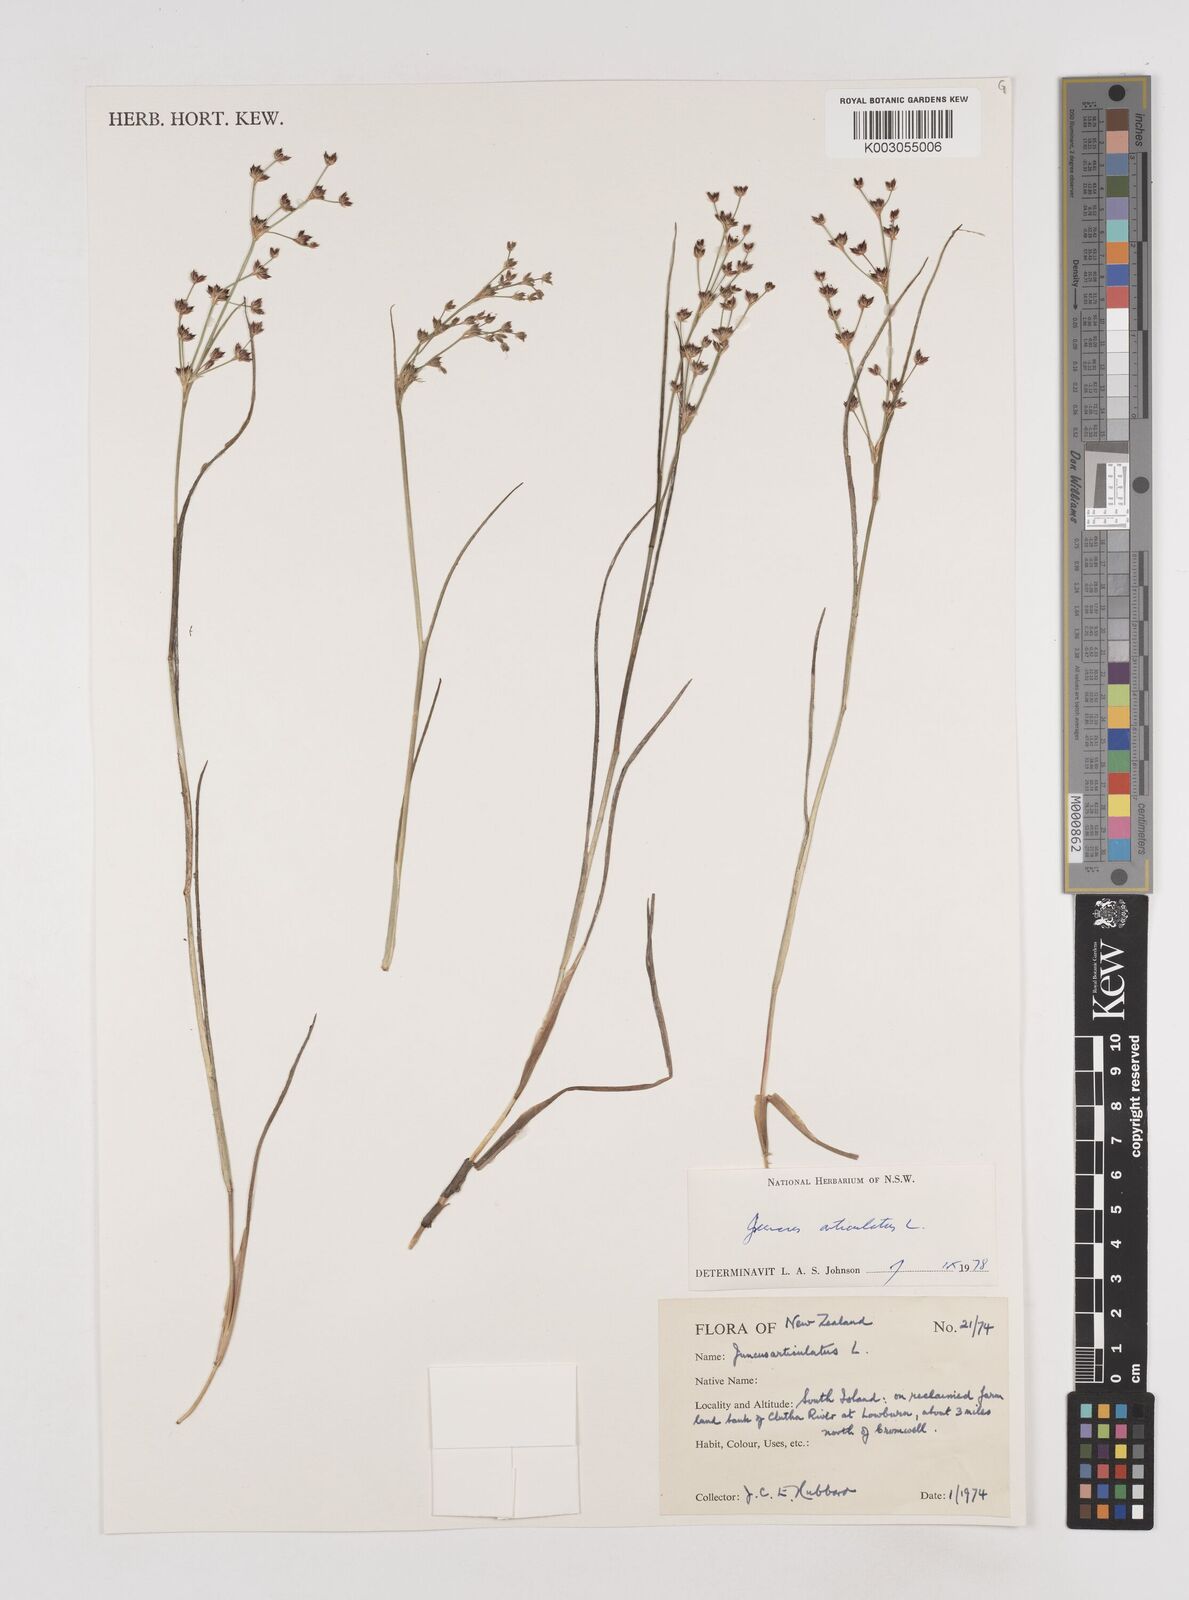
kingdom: Plantae
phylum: Tracheophyta
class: Liliopsida
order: Poales
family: Juncaceae
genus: Juncus
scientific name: Juncus articulatus
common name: Jointed rush
